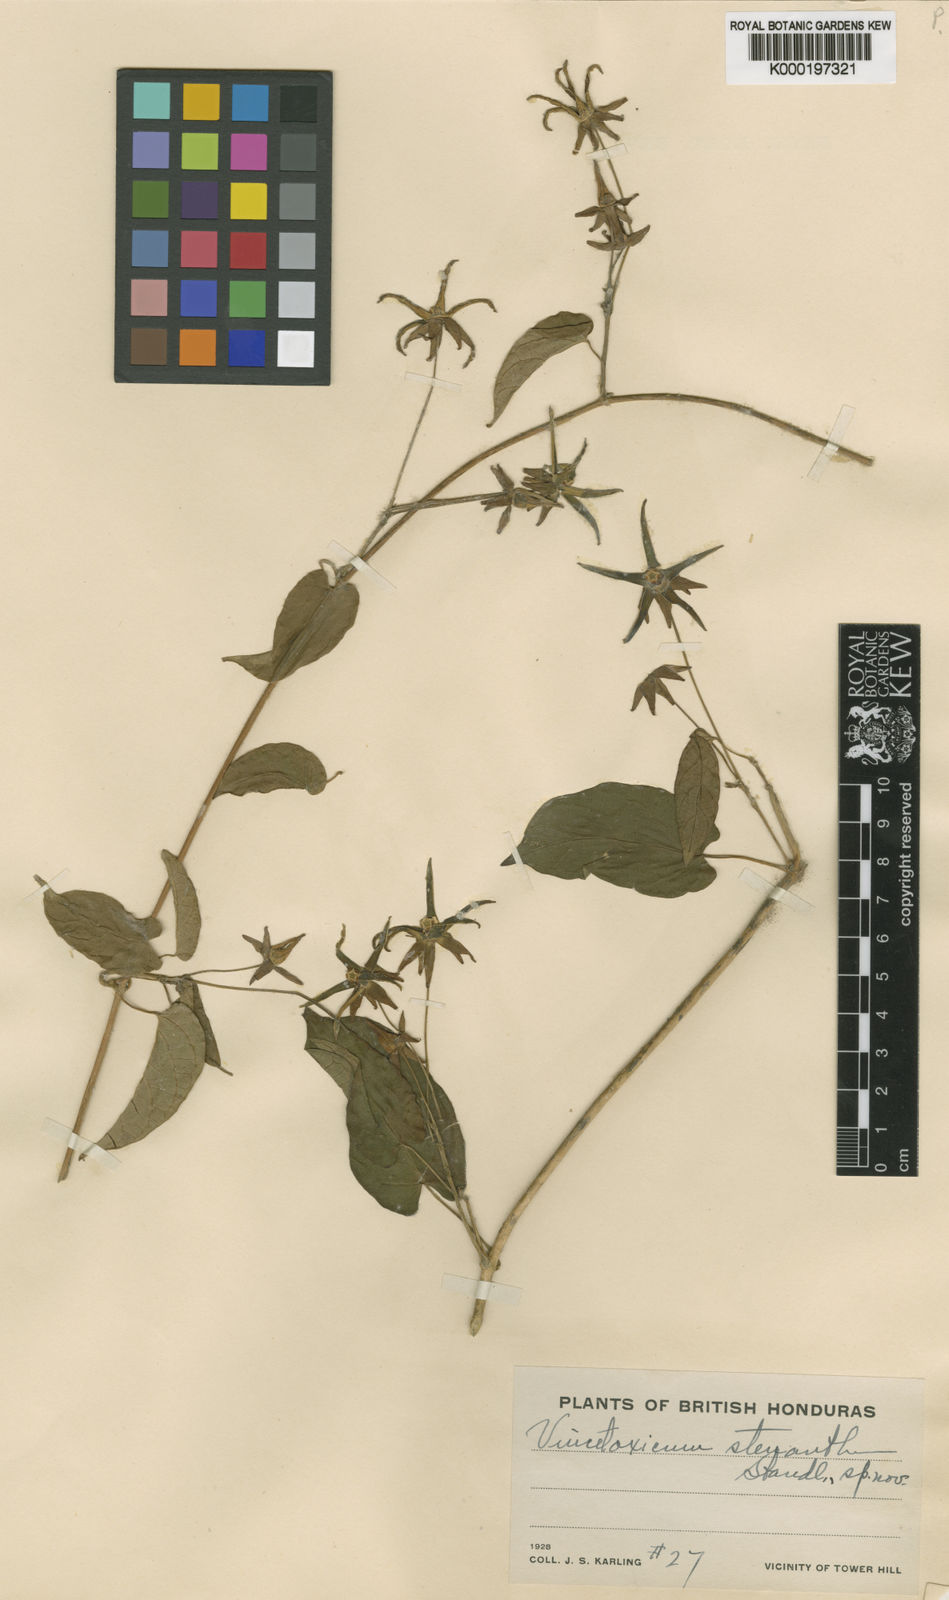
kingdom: Plantae
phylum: Tracheophyta
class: Magnoliopsida
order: Gentianales
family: Apocynaceae
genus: Gonolobus
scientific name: Gonolobus stenanthus
